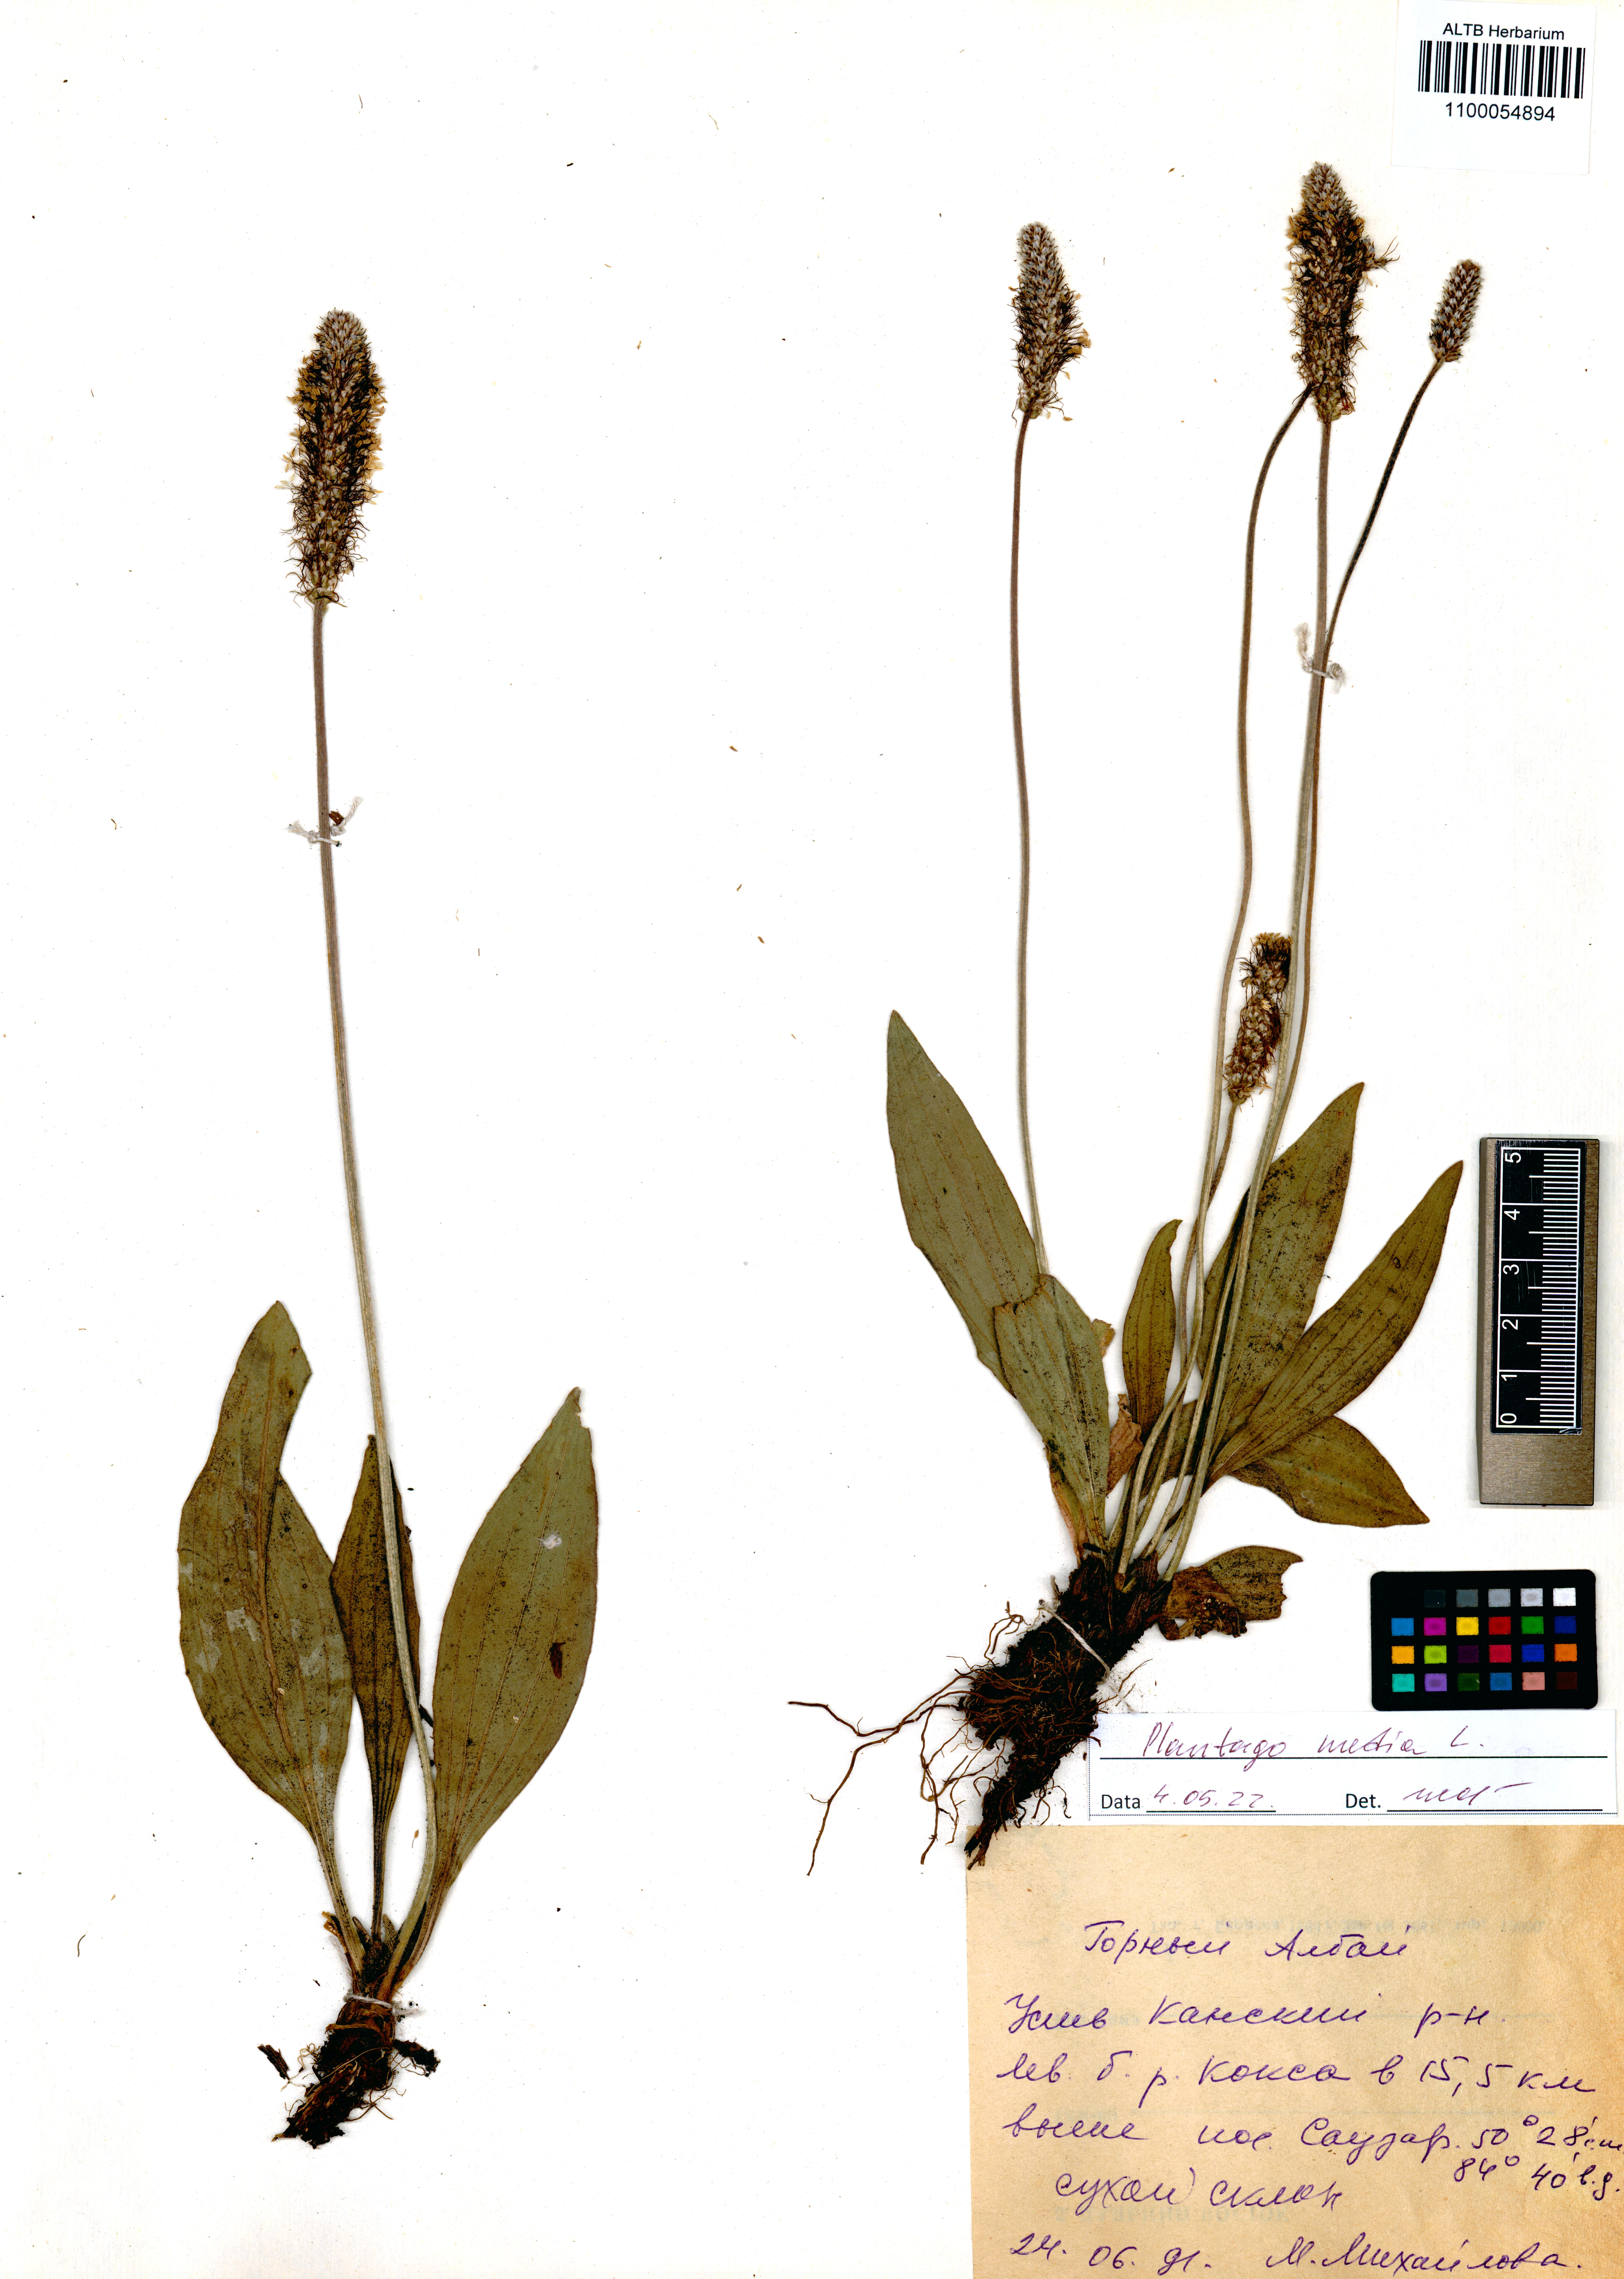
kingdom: Plantae
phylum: Tracheophyta
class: Magnoliopsida
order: Lamiales
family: Plantaginaceae
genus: Plantago
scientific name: Plantago media
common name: Hoary plantain
